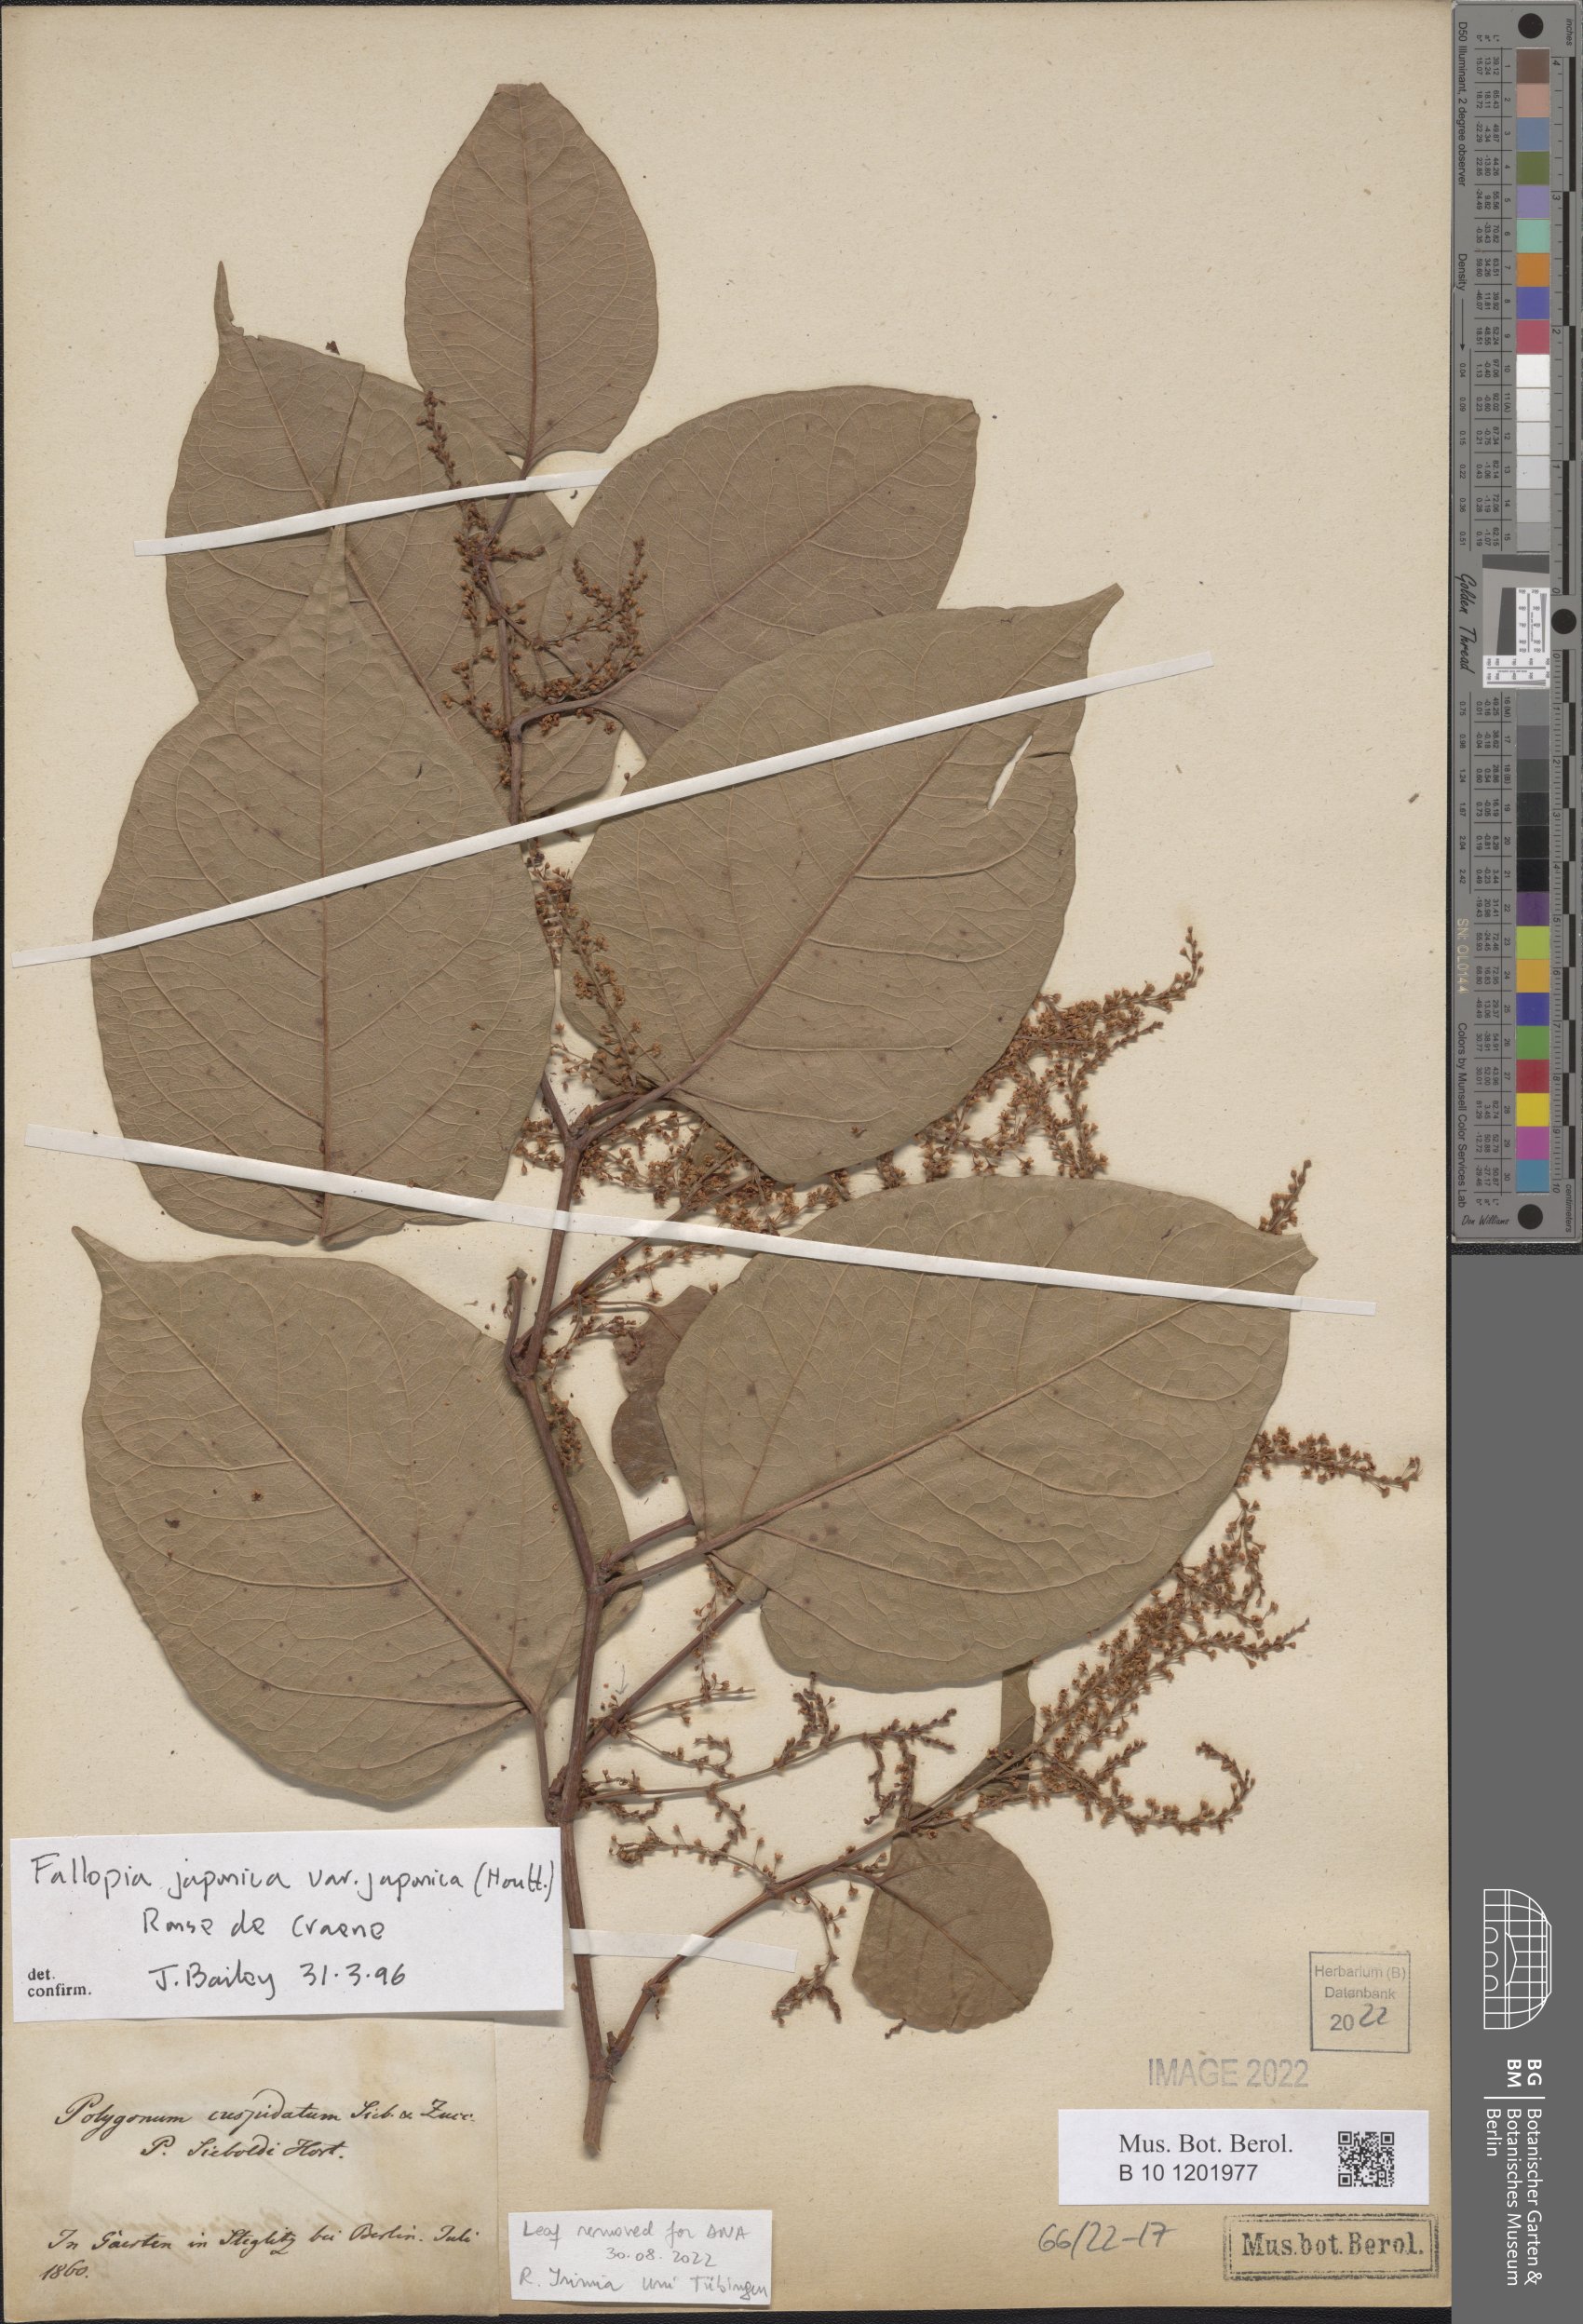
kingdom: Plantae
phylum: Tracheophyta
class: Magnoliopsida
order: Caryophyllales
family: Polygonaceae
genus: Reynoutria
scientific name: Reynoutria japonica
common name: Japanese knotweed
